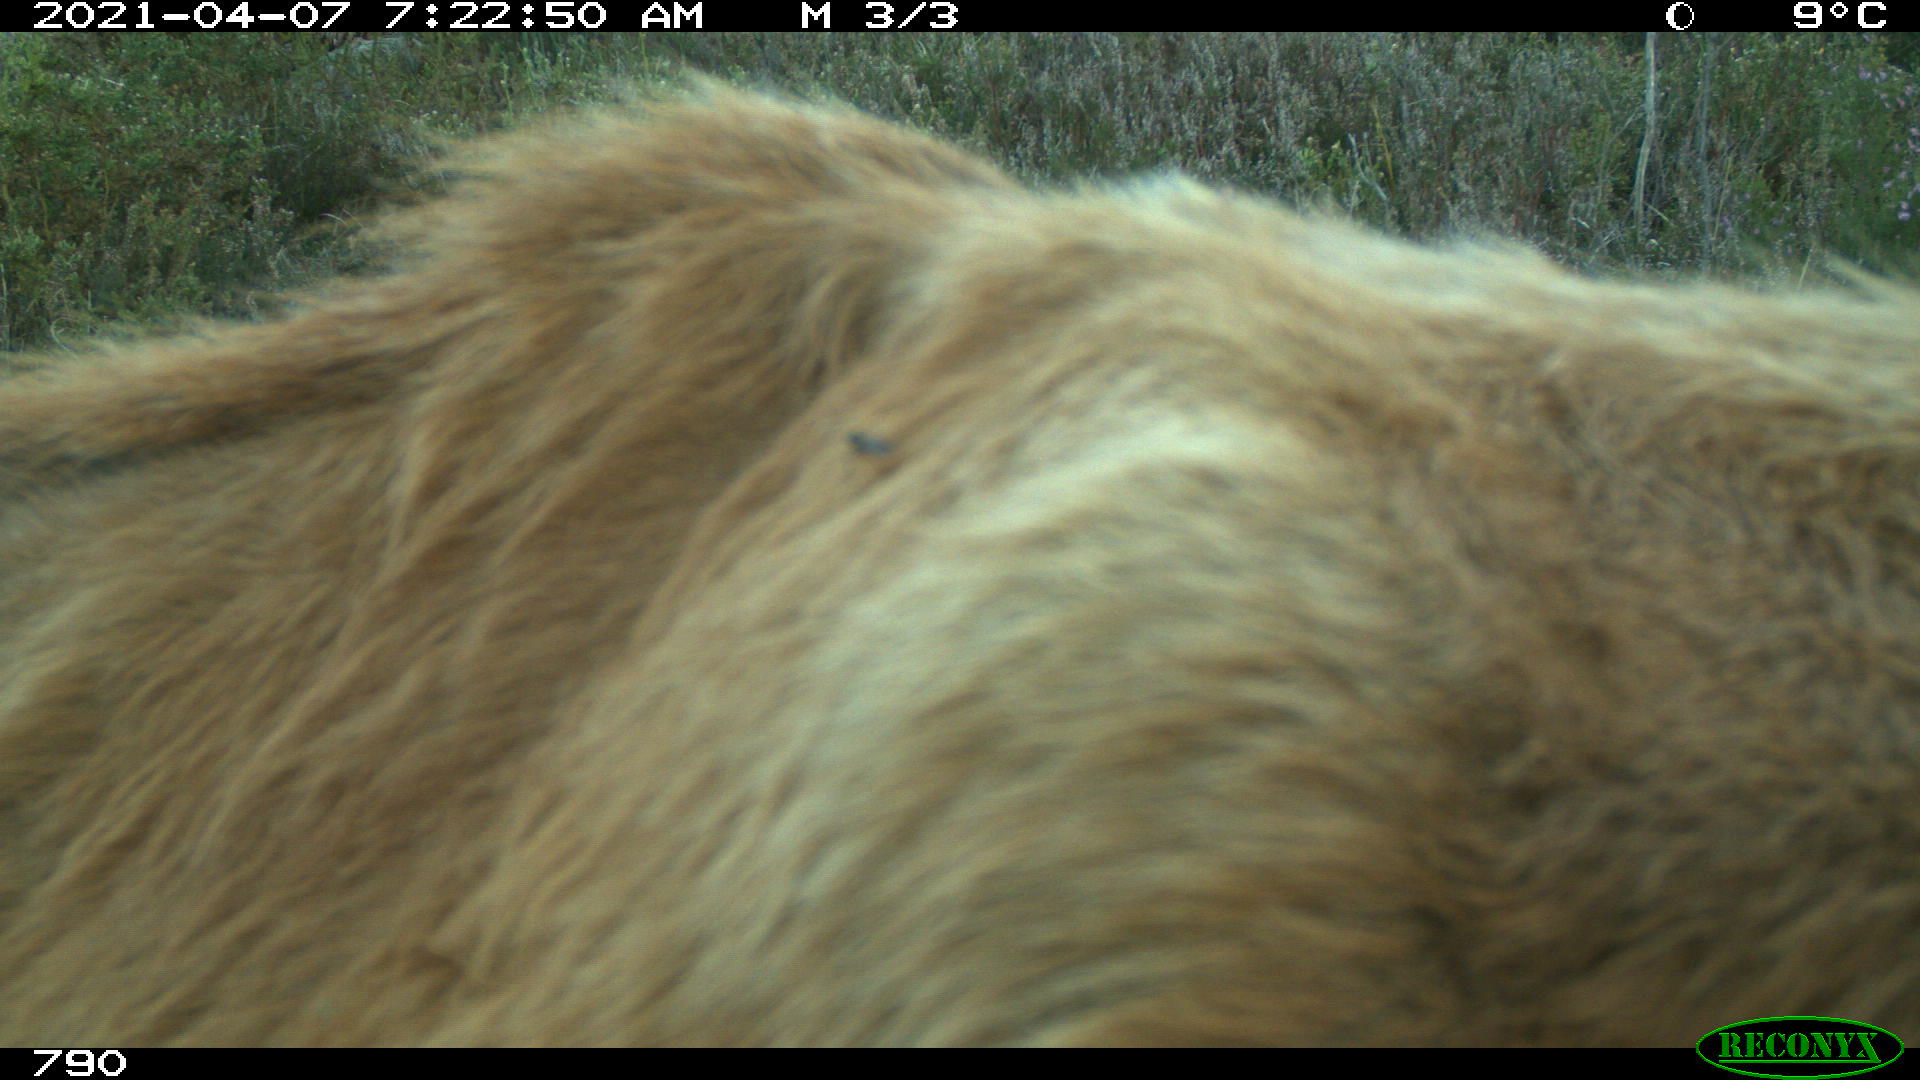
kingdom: Animalia
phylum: Chordata
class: Mammalia
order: Artiodactyla
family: Bovidae
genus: Bos
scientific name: Bos taurus
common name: Domesticated cattle
